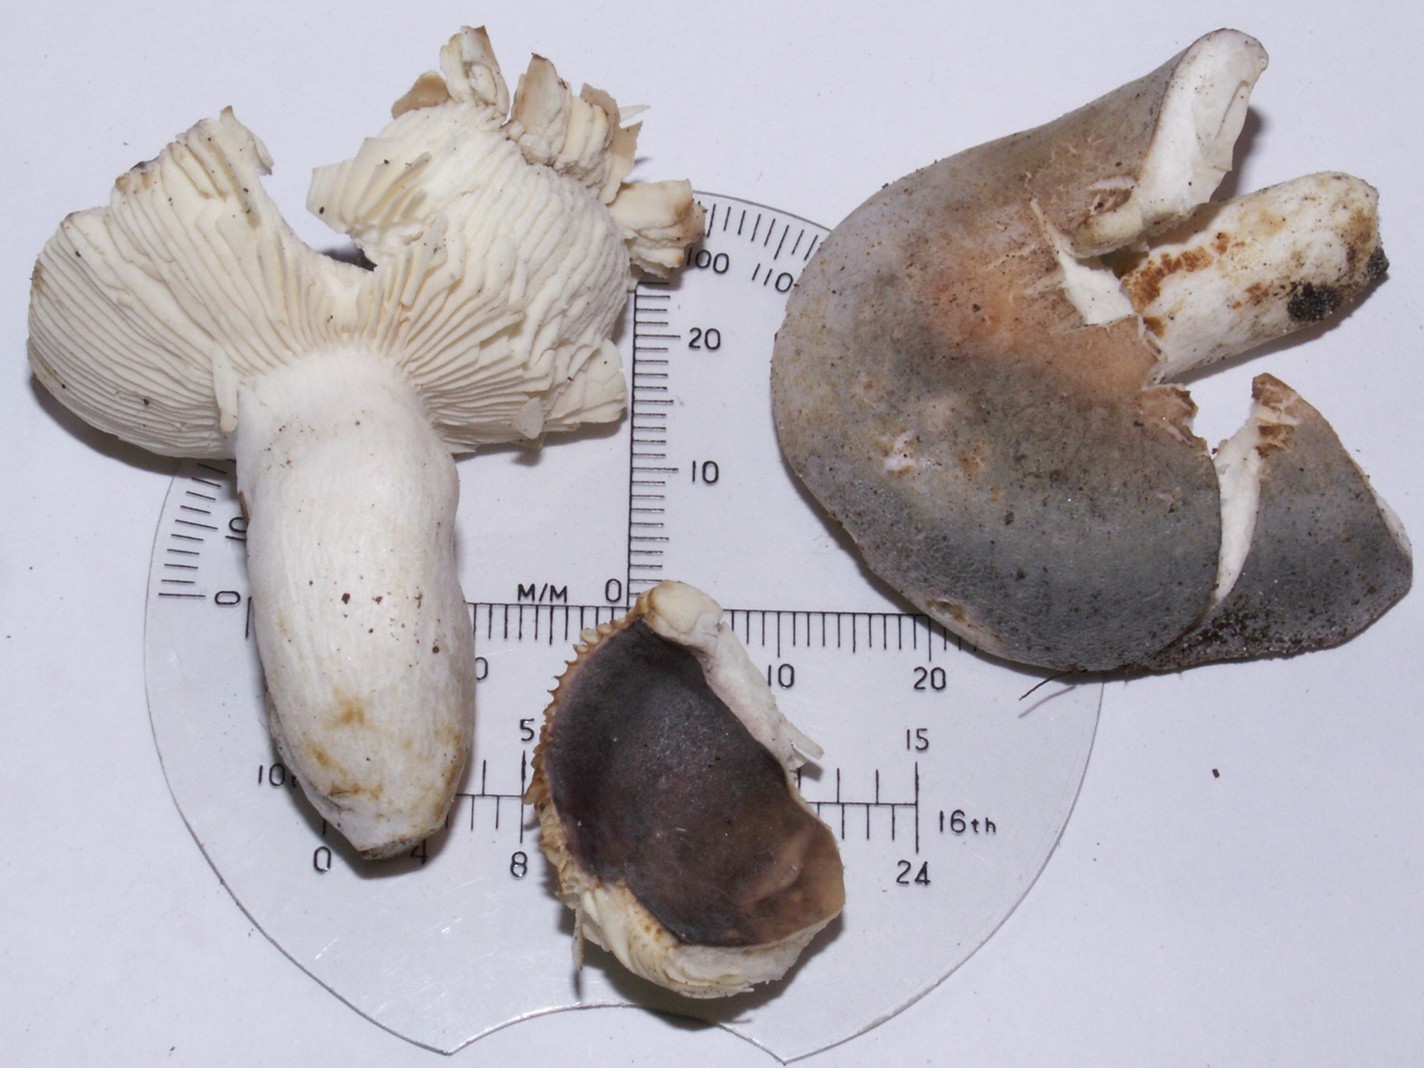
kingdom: Fungi
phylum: Basidiomycota
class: Agaricomycetes
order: Russulales
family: Russulaceae
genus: Russula
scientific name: Russula parazurea
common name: blågrå skørhat
